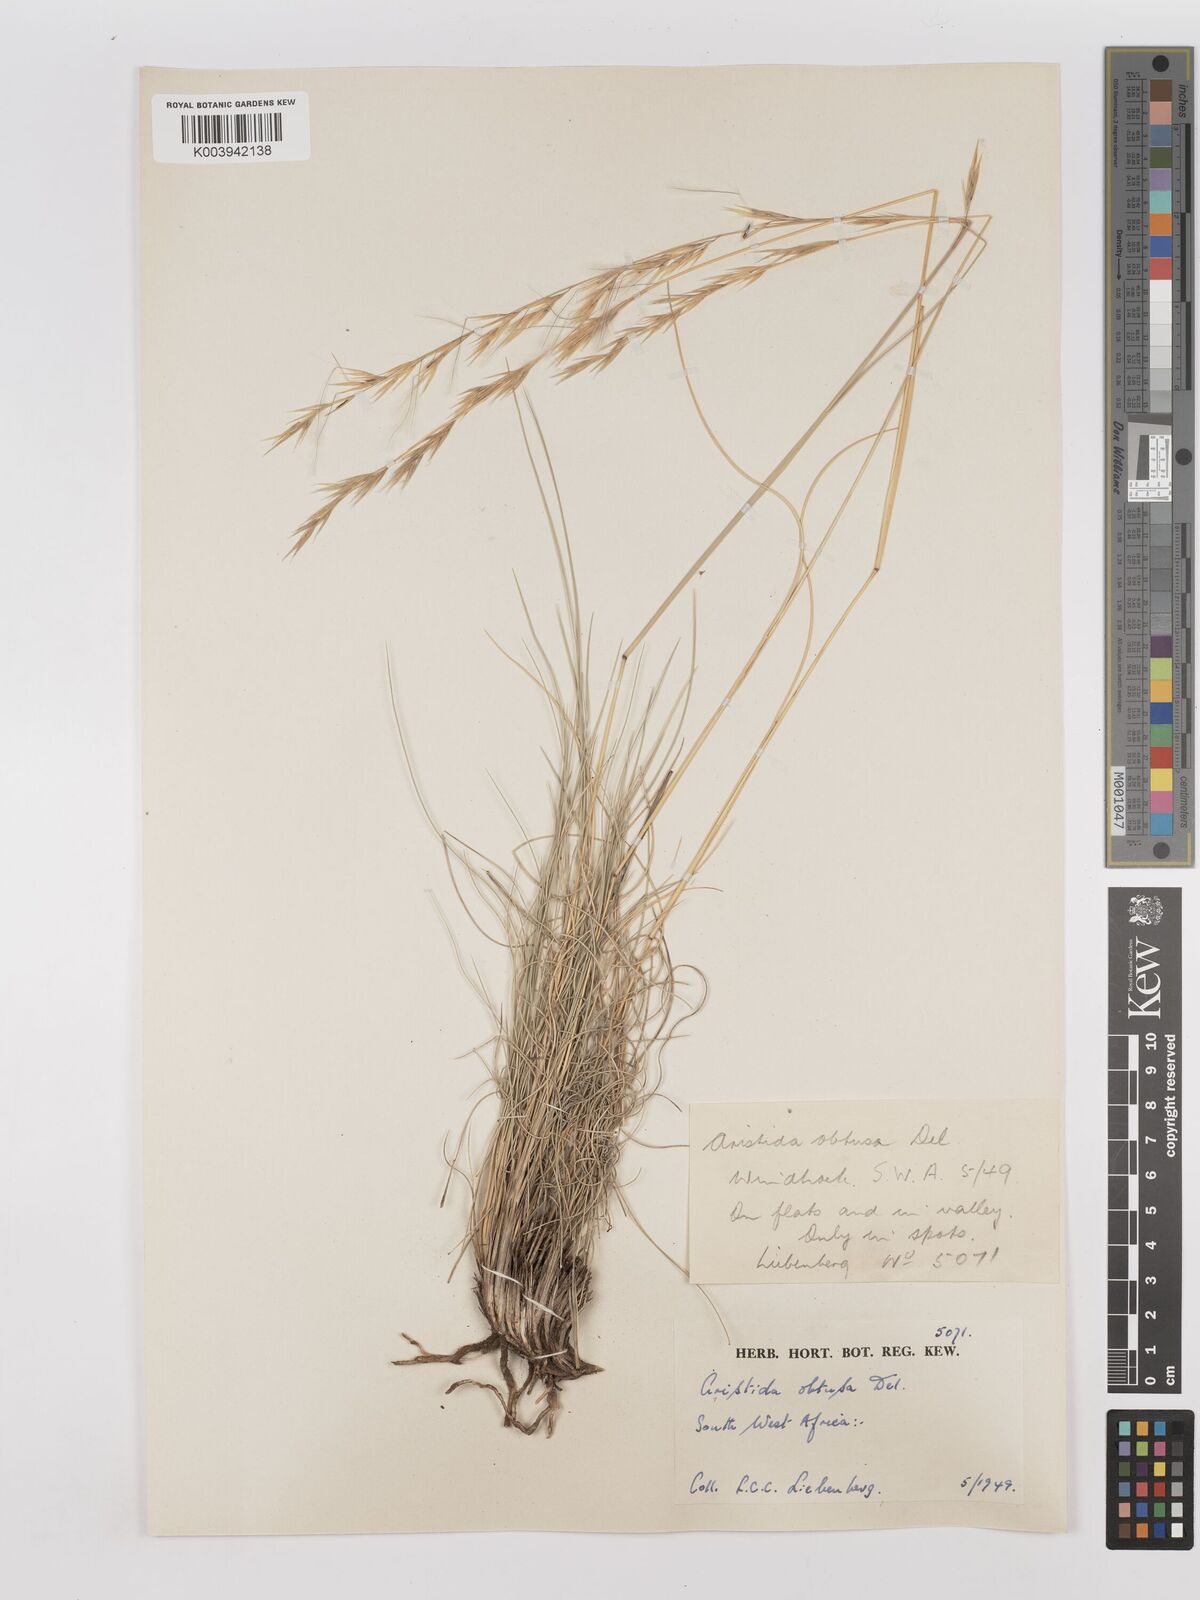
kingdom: Plantae
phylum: Tracheophyta
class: Liliopsida
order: Poales
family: Poaceae
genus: Stipagrostis
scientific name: Stipagrostis obtusa
